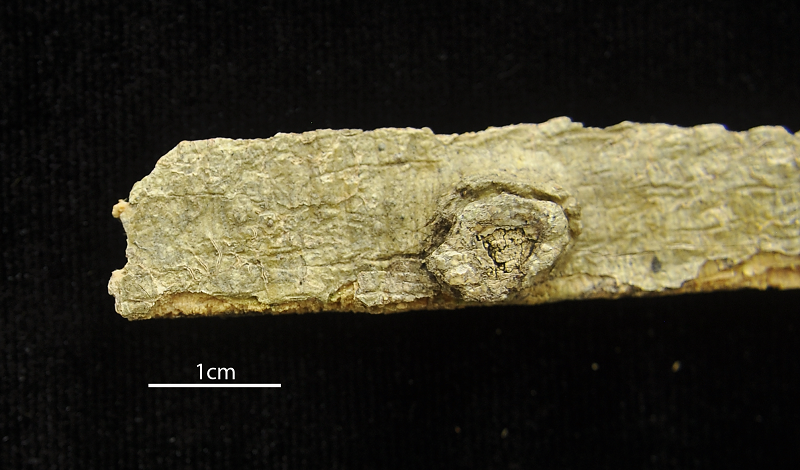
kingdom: Fungi
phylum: Ascomycota
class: Lecanoromycetes
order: Ostropales
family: Graphidaceae
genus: Fissurina
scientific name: Fissurina dumastii
